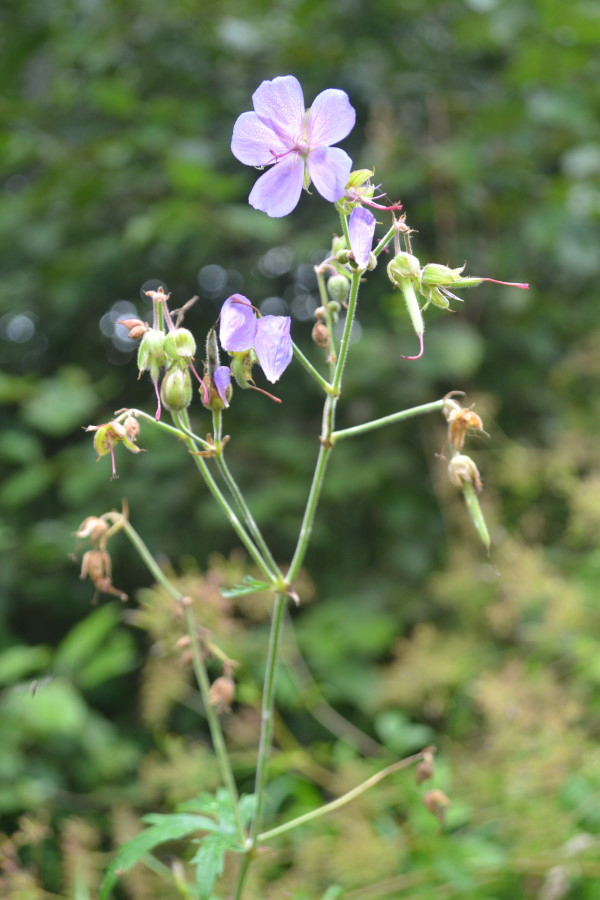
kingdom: Plantae
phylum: Tracheophyta
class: Magnoliopsida
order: Geraniales
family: Geraniaceae
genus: Geranium
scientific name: Geranium pratense
